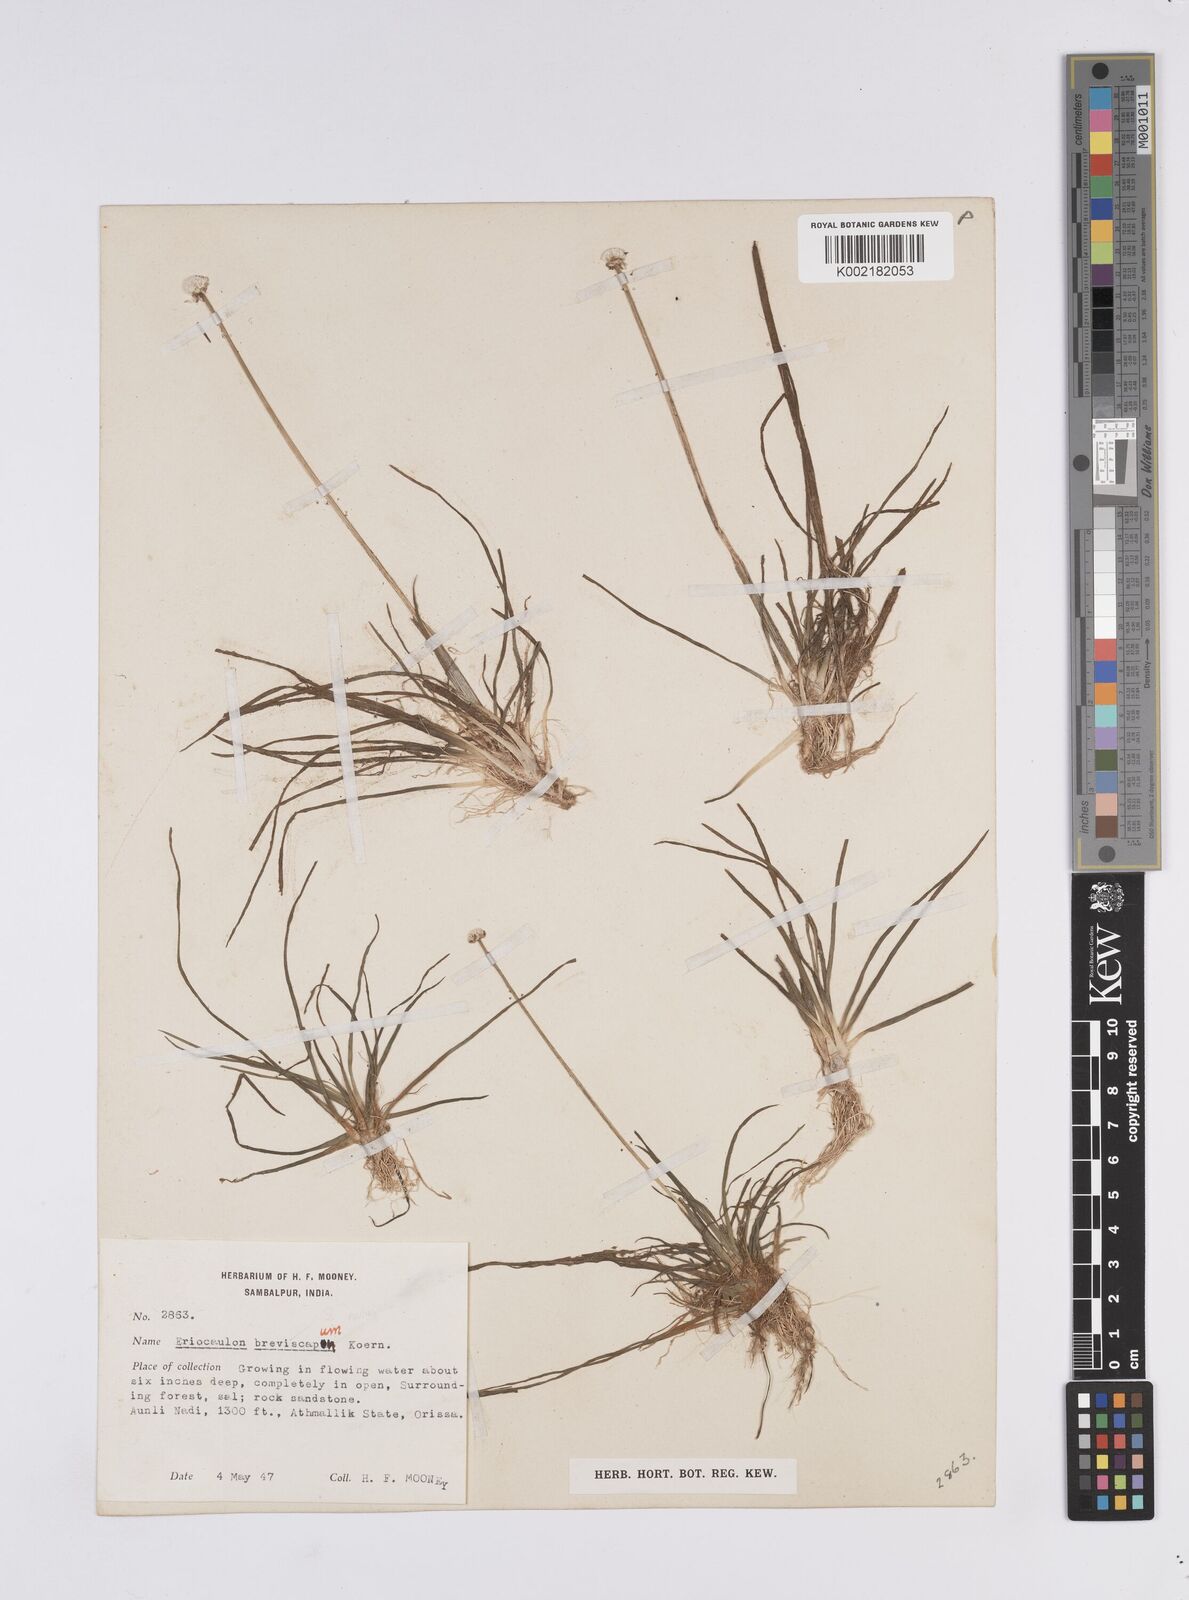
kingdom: Plantae
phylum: Tracheophyta
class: Liliopsida
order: Poales
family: Eriocaulaceae
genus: Eriocaulon
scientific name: Eriocaulon breviscapum
